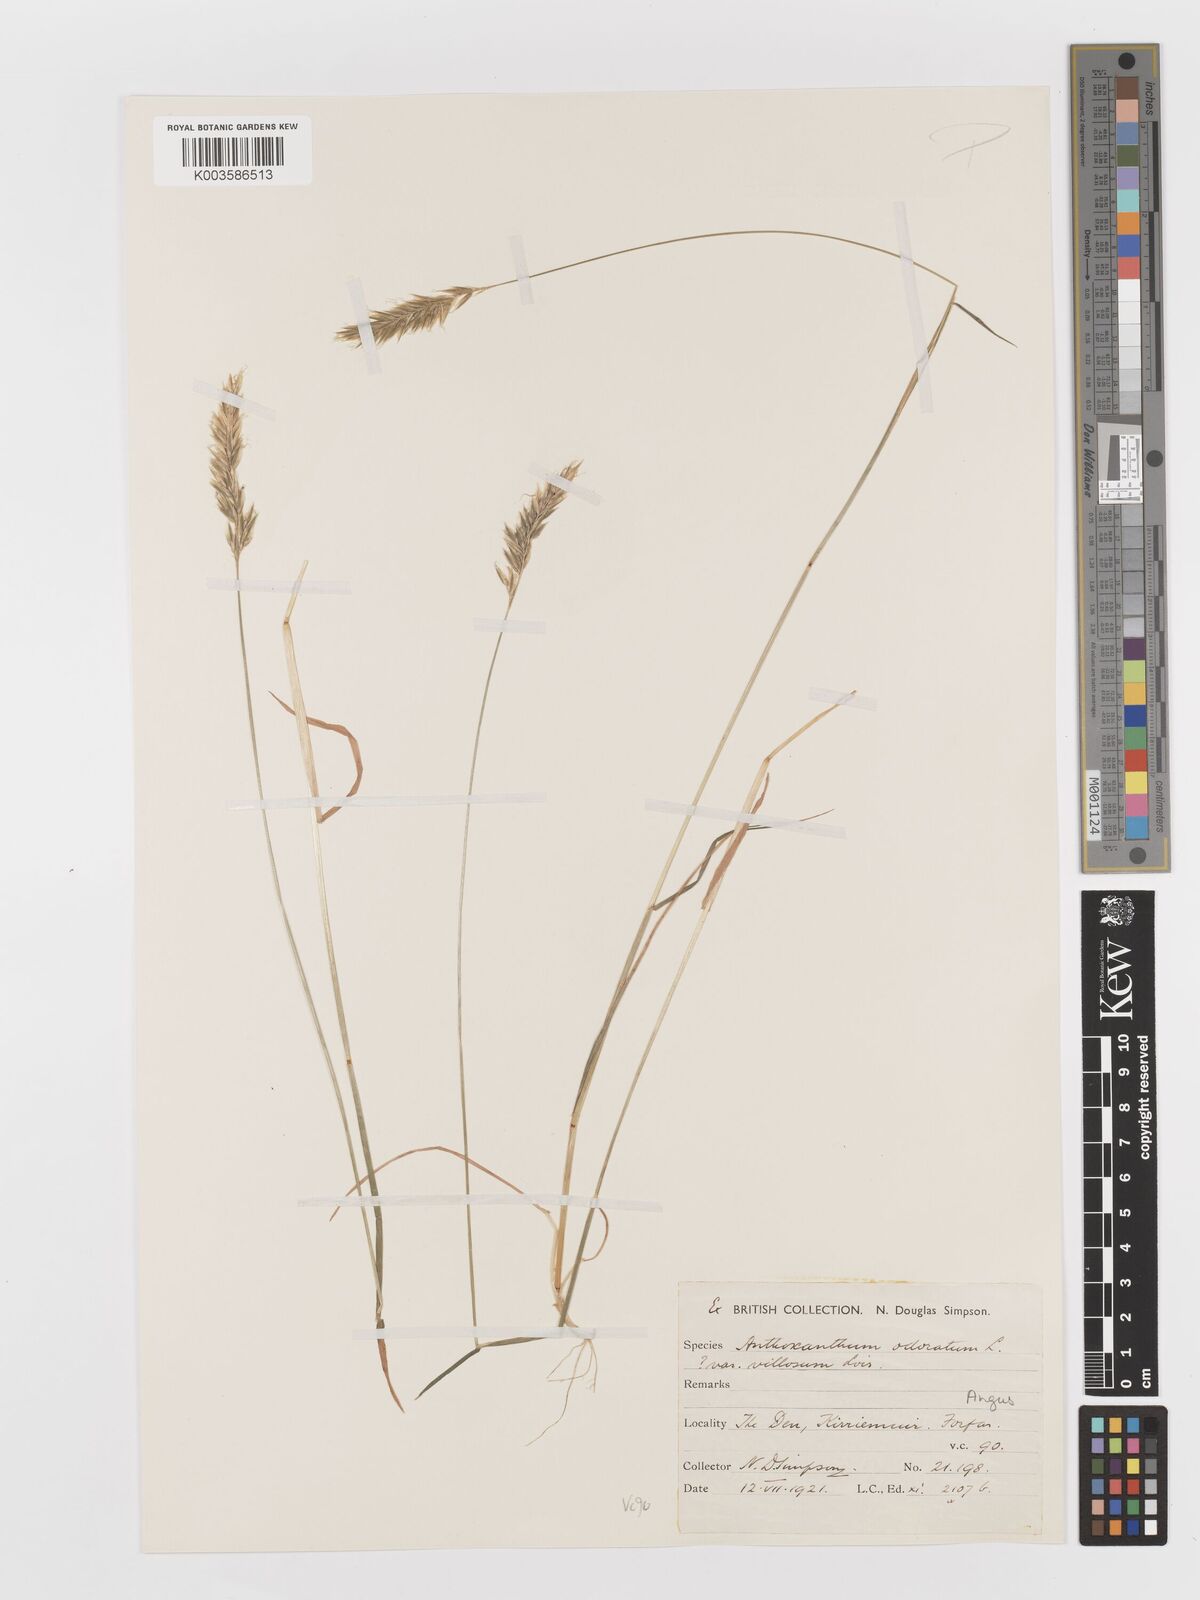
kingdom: Plantae
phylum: Tracheophyta
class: Liliopsida
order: Poales
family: Poaceae
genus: Anthoxanthum
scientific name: Anthoxanthum odoratum
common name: Sweet vernalgrass
